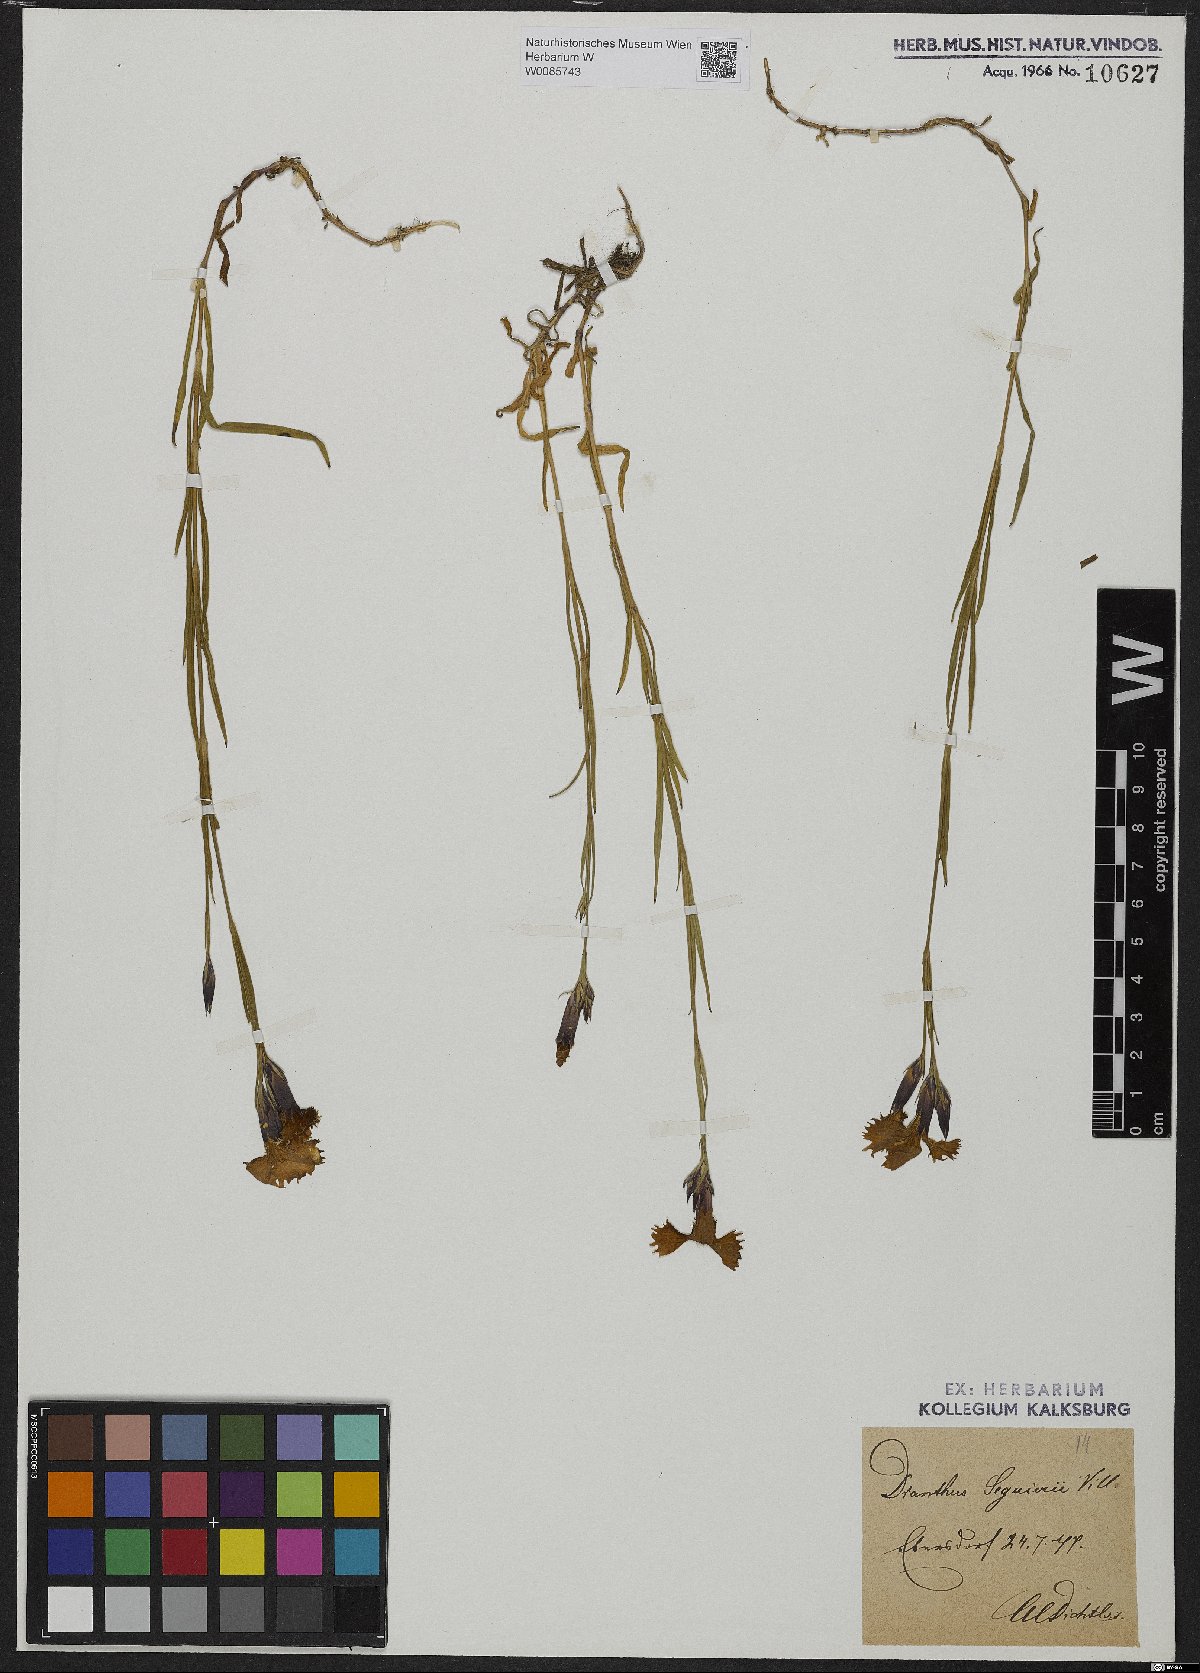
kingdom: Plantae
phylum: Tracheophyta
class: Magnoliopsida
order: Caryophyllales
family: Caryophyllaceae
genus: Dianthus
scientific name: Dianthus seguieri
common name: Ragged pink
